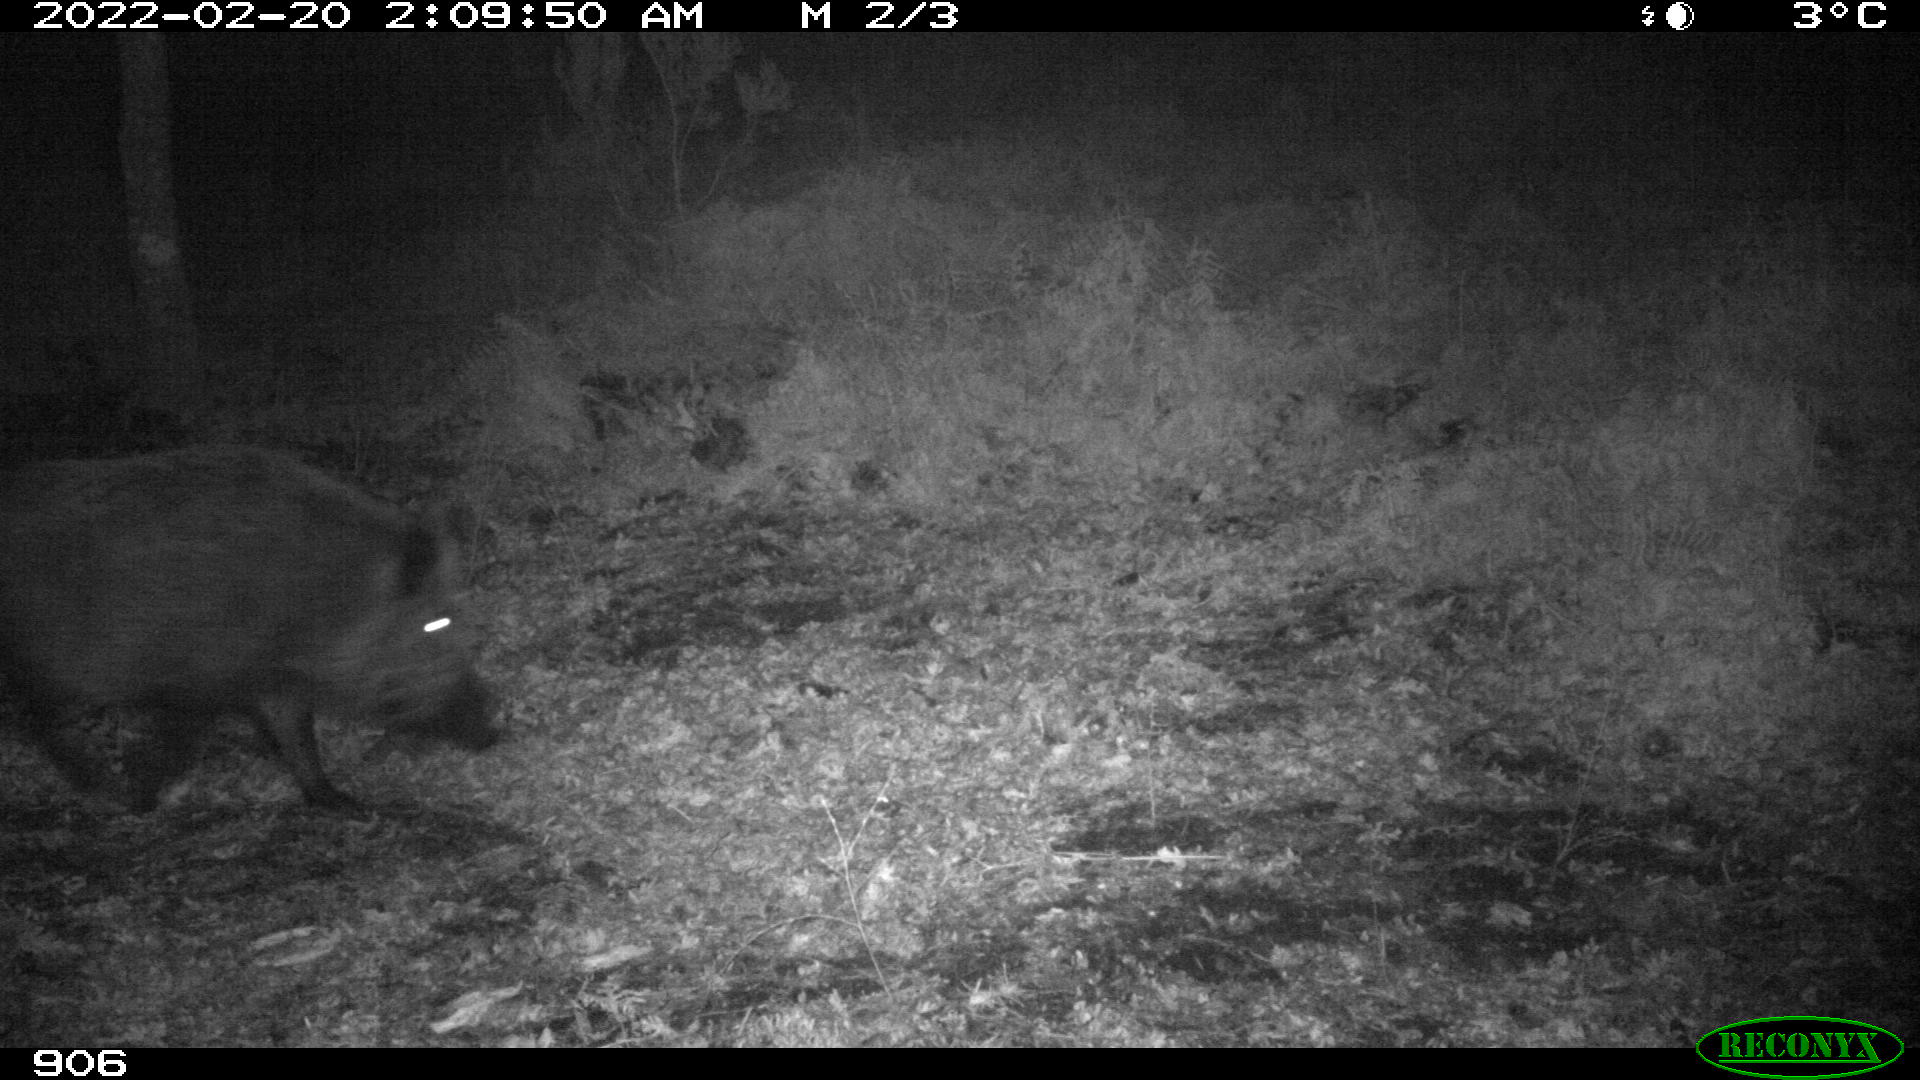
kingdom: Animalia
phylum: Chordata
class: Mammalia
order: Artiodactyla
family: Suidae
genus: Sus
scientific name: Sus scrofa
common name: Wild boar
